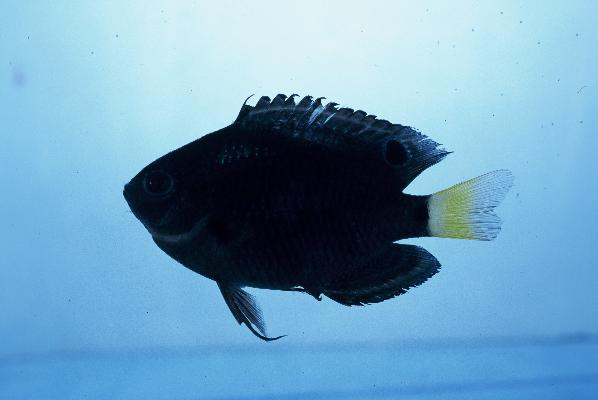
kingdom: Animalia
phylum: Chordata
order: Perciformes
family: Pomacentridae
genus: Pomacentrus
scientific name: Pomacentrus trichrourus
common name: Paletail damsel
